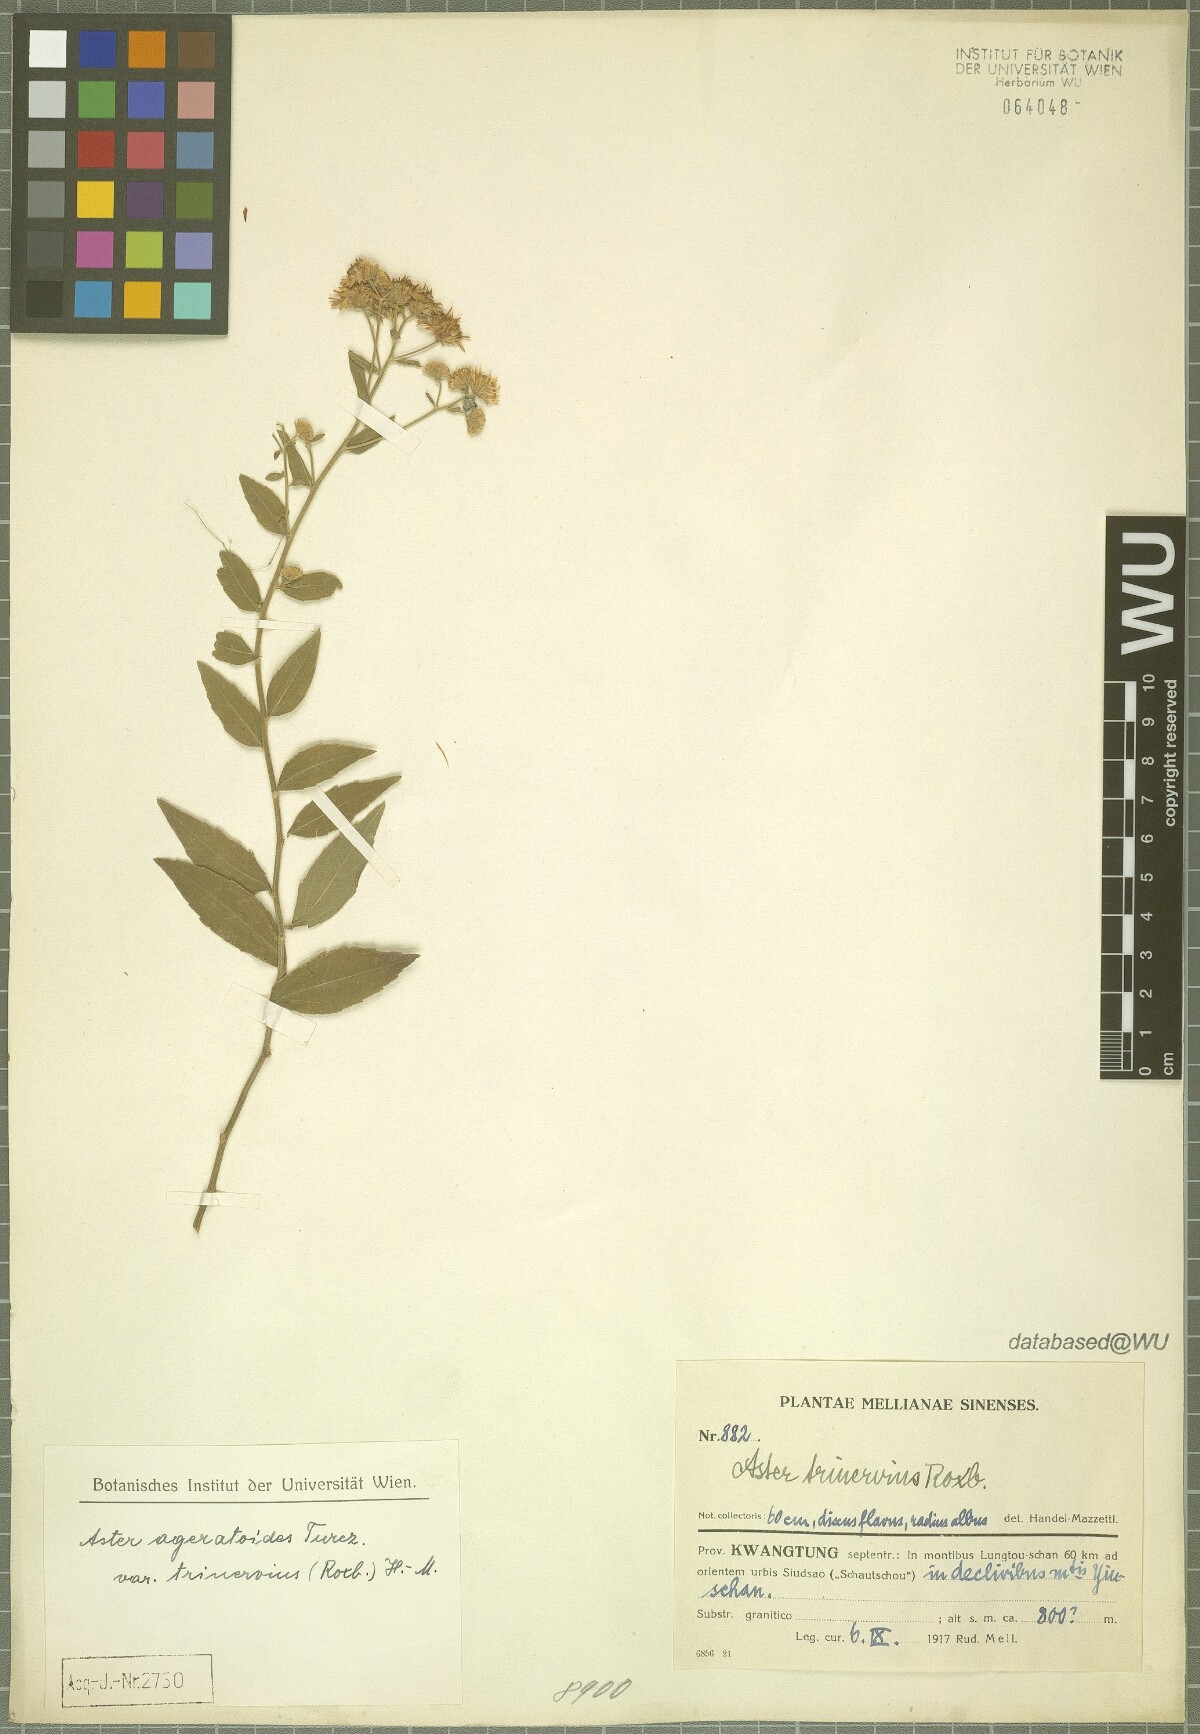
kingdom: Plantae
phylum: Tracheophyta
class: Magnoliopsida
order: Asterales
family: Asteraceae
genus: Aster
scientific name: Aster ageratoides
